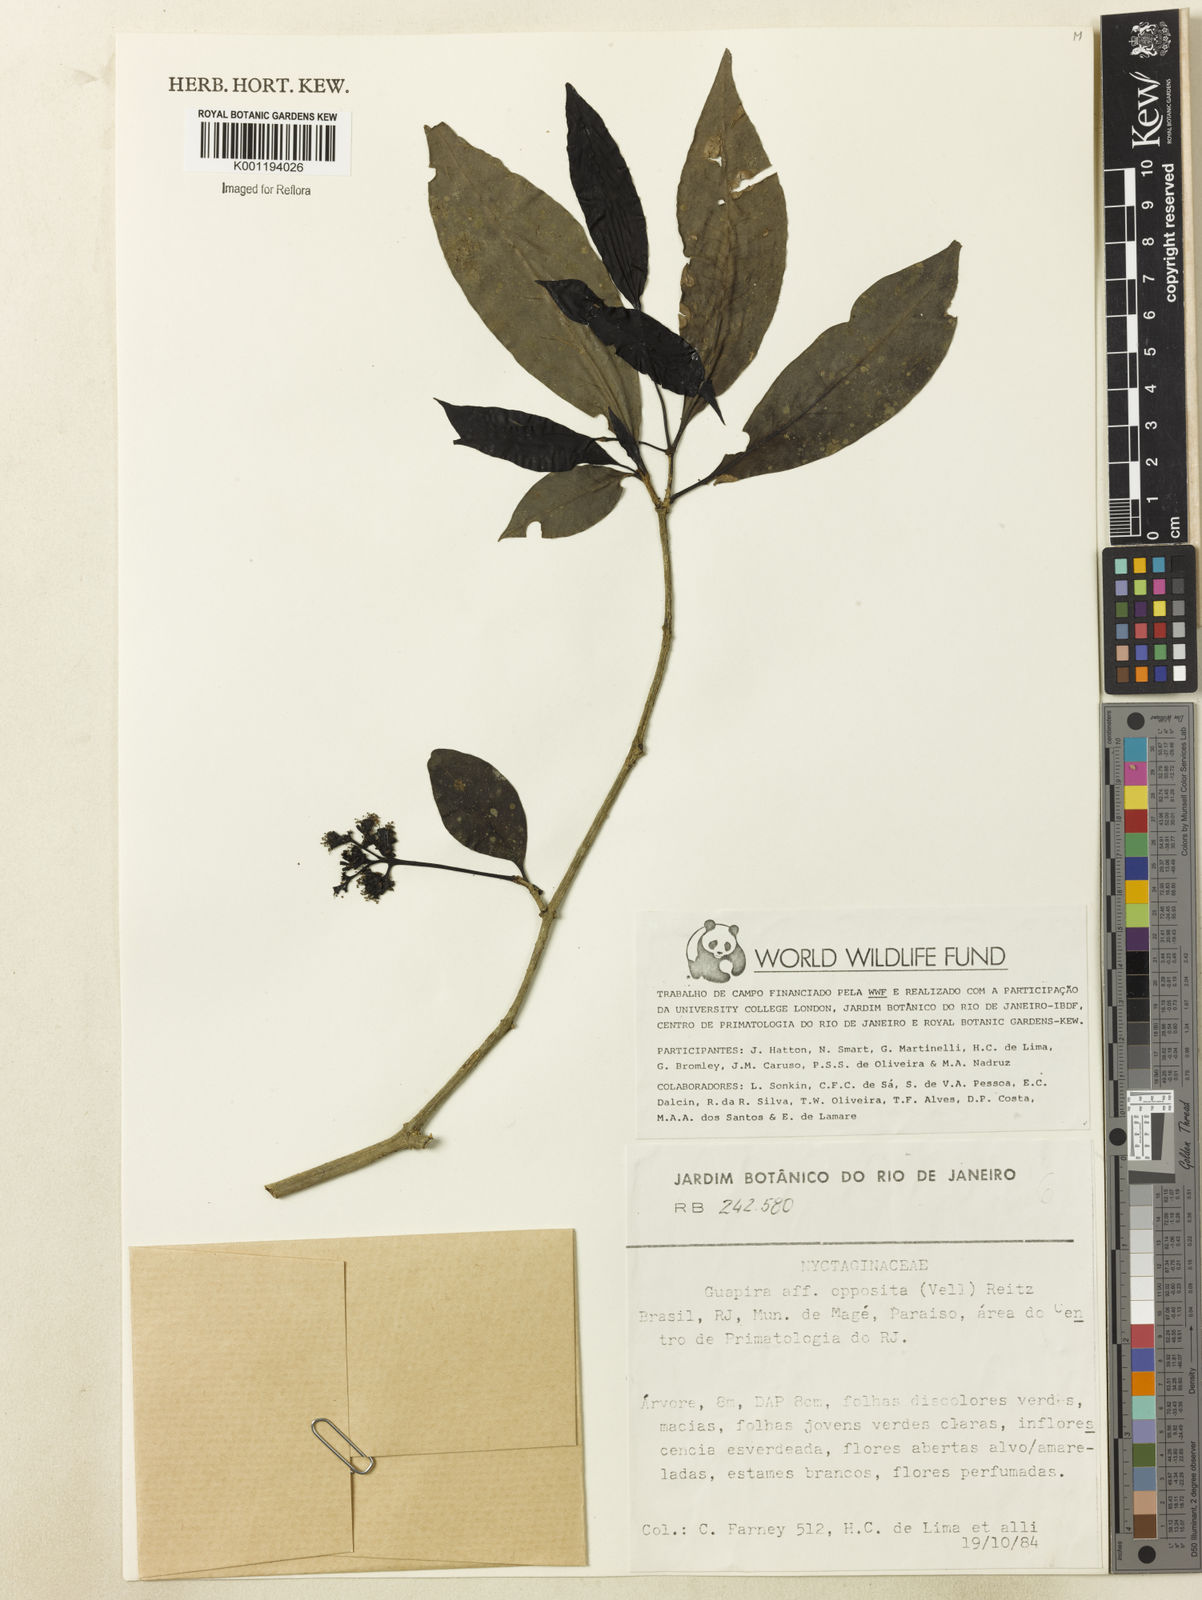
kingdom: Plantae
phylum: Tracheophyta
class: Magnoliopsida
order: Caryophyllales
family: Nyctaginaceae
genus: Guapira
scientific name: Guapira opposita
